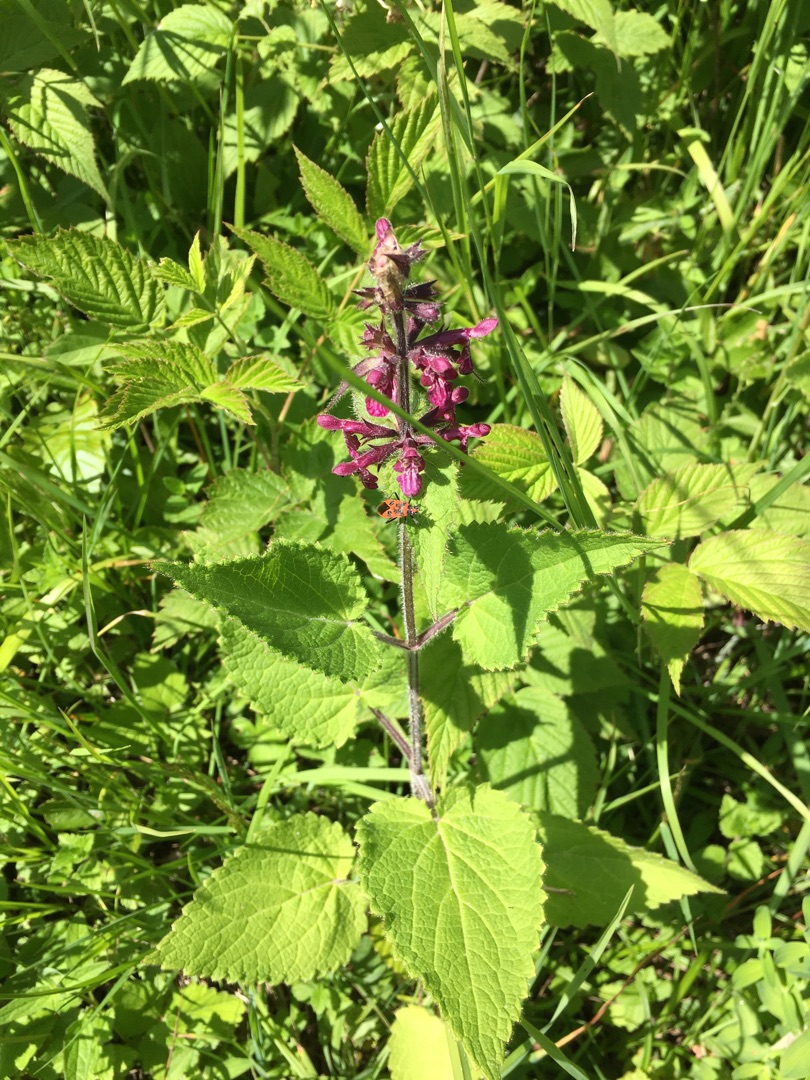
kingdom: Plantae
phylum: Tracheophyta
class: Magnoliopsida
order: Lamiales
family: Lamiaceae
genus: Stachys
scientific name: Stachys sylvatica
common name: Skov-galtetand
